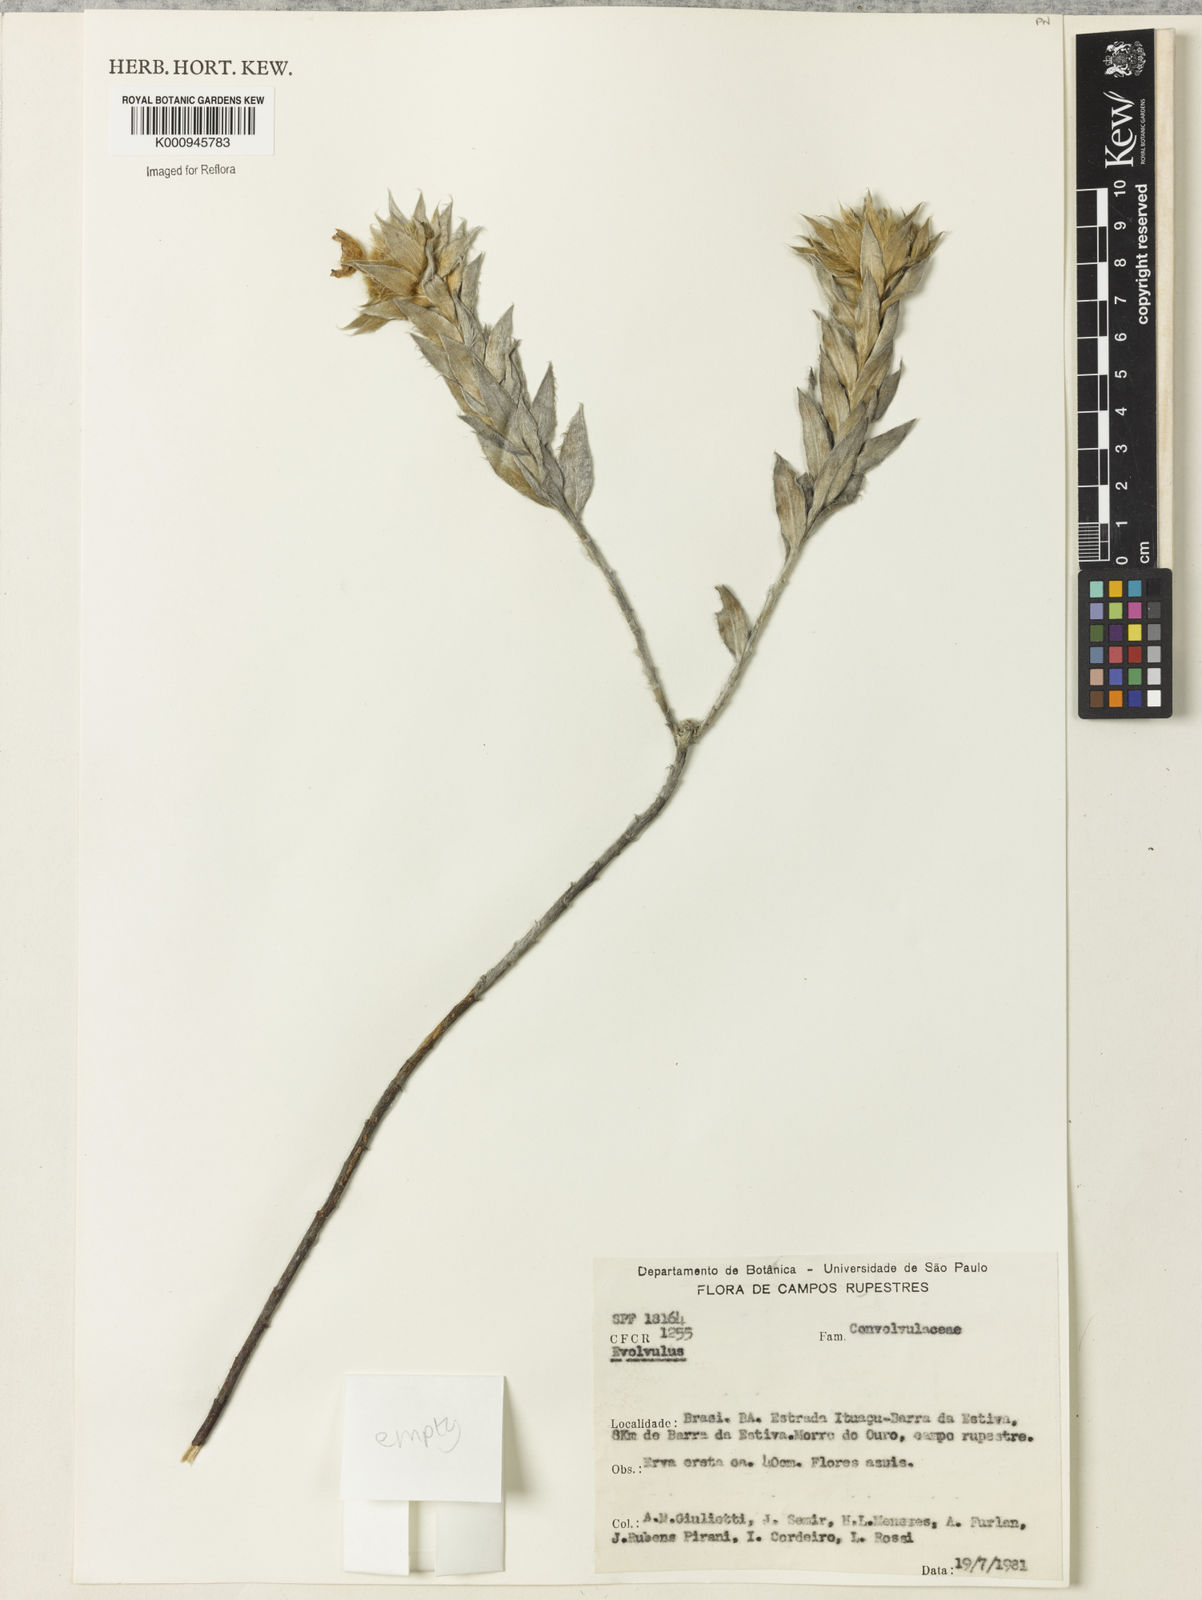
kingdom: Plantae
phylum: Tracheophyta
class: Magnoliopsida
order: Solanales
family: Convolvulaceae
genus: Evolvulus
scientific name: Evolvulus
